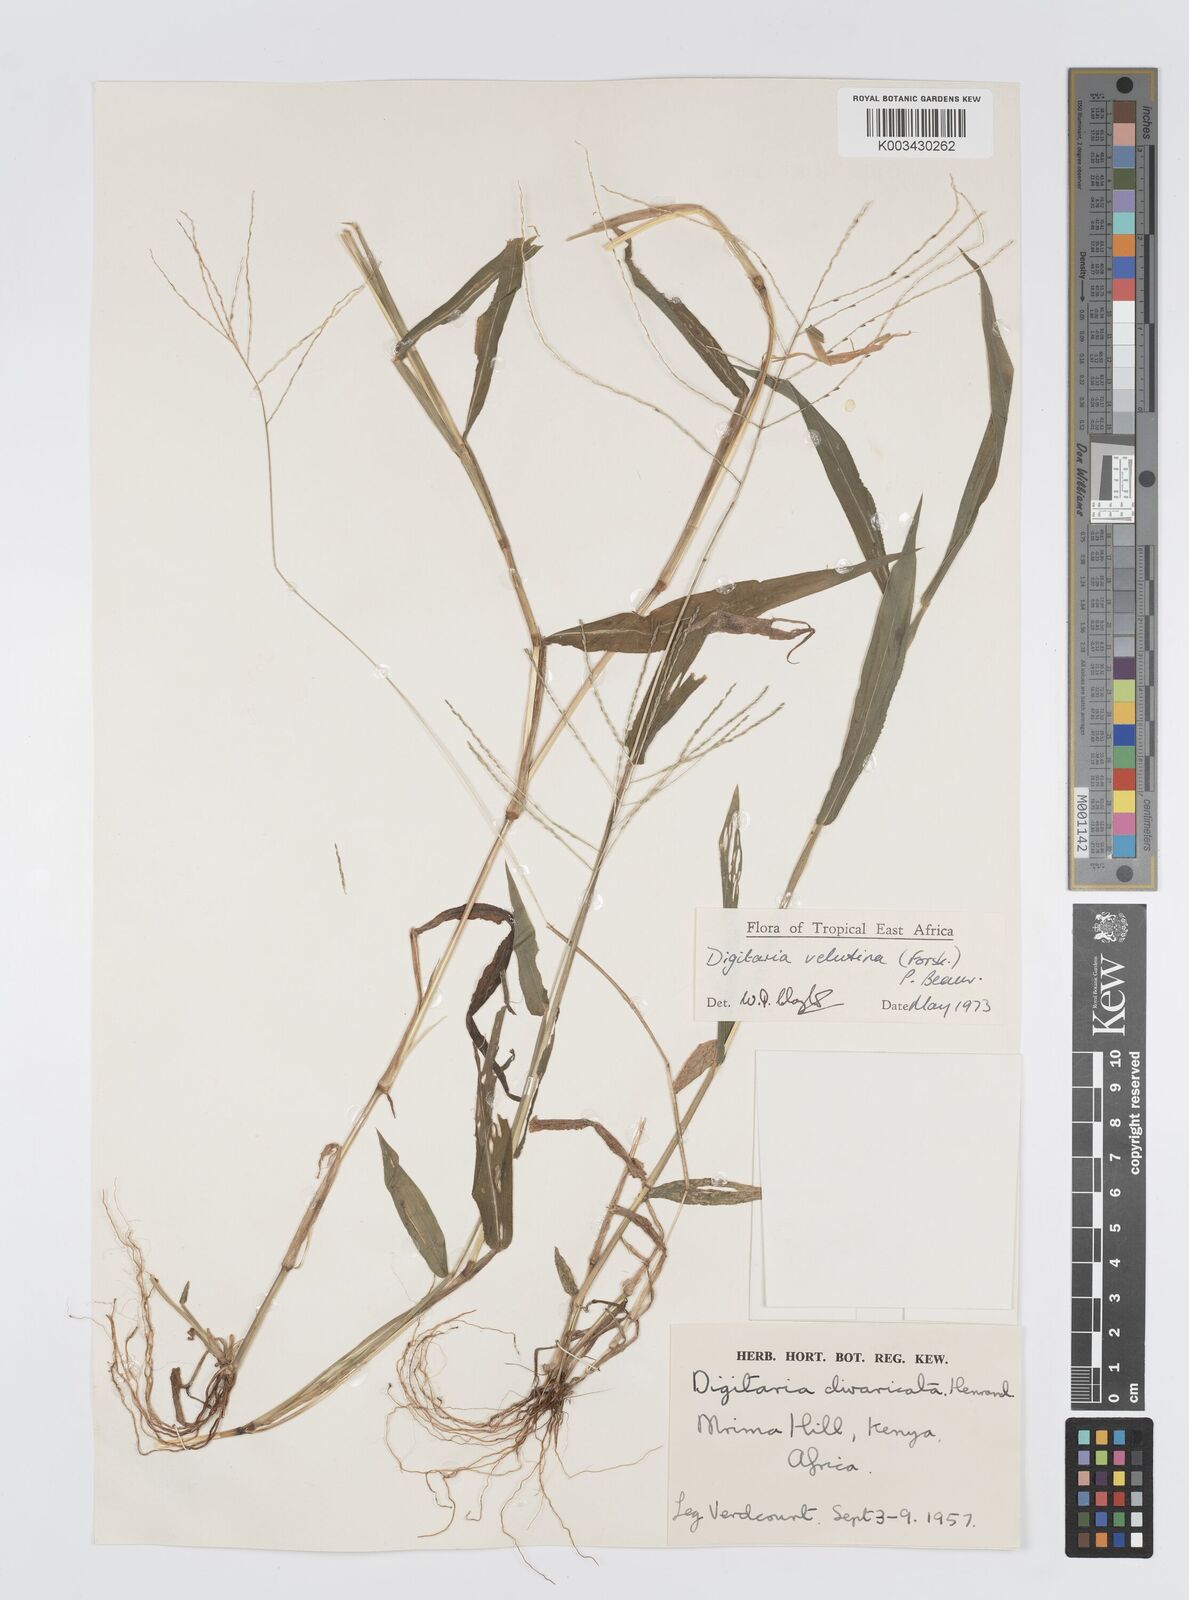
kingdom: Plantae
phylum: Tracheophyta
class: Liliopsida
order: Poales
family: Poaceae
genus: Digitaria
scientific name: Digitaria velutina
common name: Long-plume finger grass
